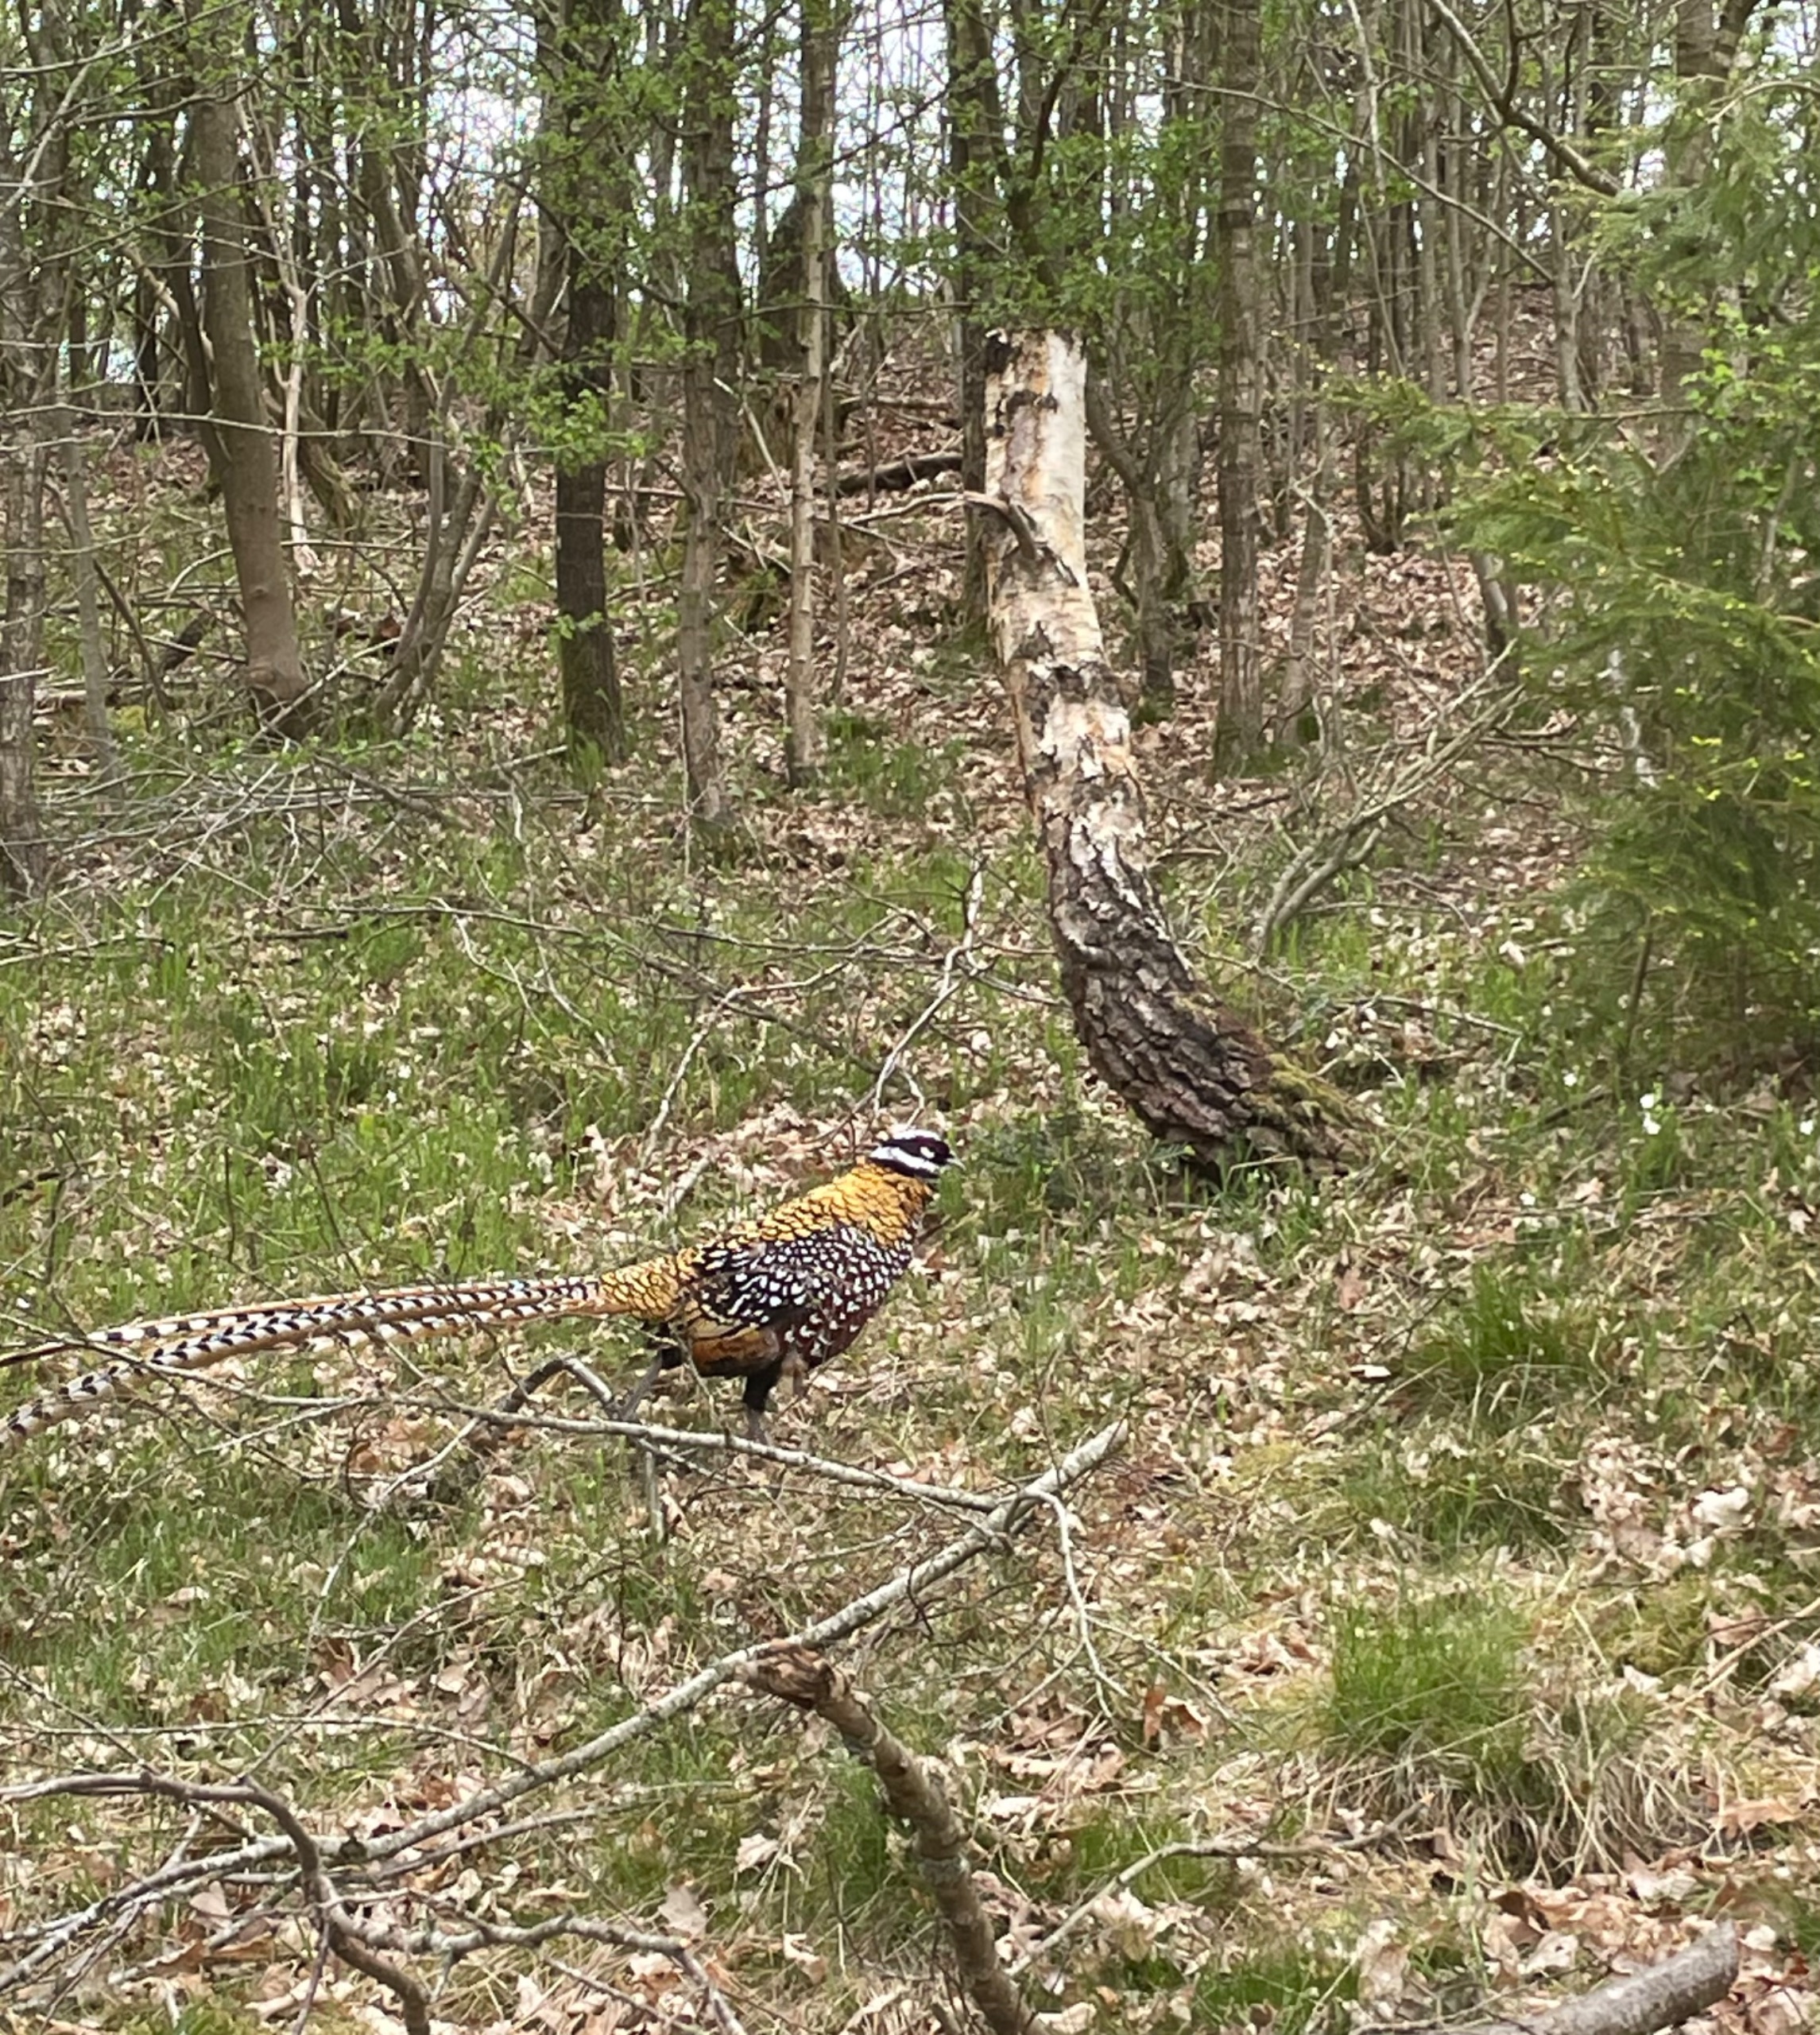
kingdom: Animalia
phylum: Chordata
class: Aves
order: Galliformes
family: Phasianidae
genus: Syrmaticus
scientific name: Syrmaticus reevesii
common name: Kongefasan
